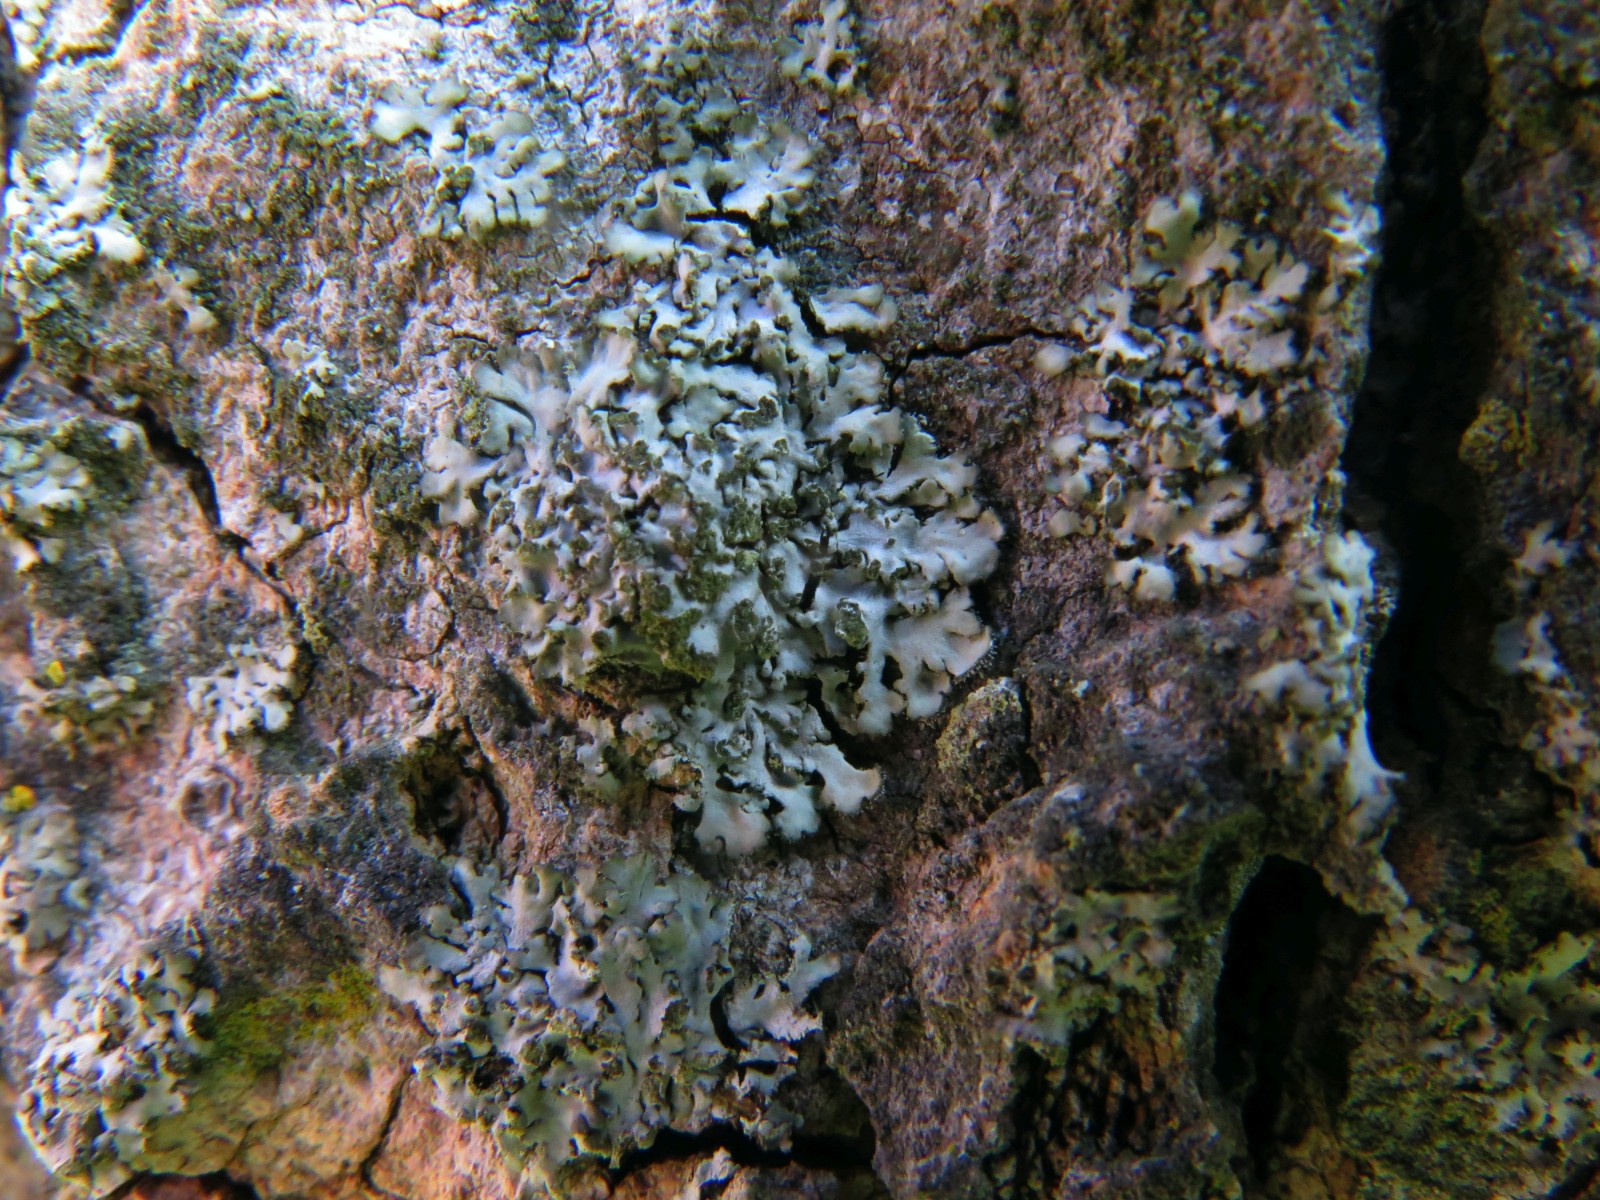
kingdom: Fungi
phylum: Ascomycota
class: Lecanoromycetes
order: Caliciales
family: Physciaceae
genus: Phaeophyscia
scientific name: Phaeophyscia orbicularis
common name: grågrøn rosetlav
